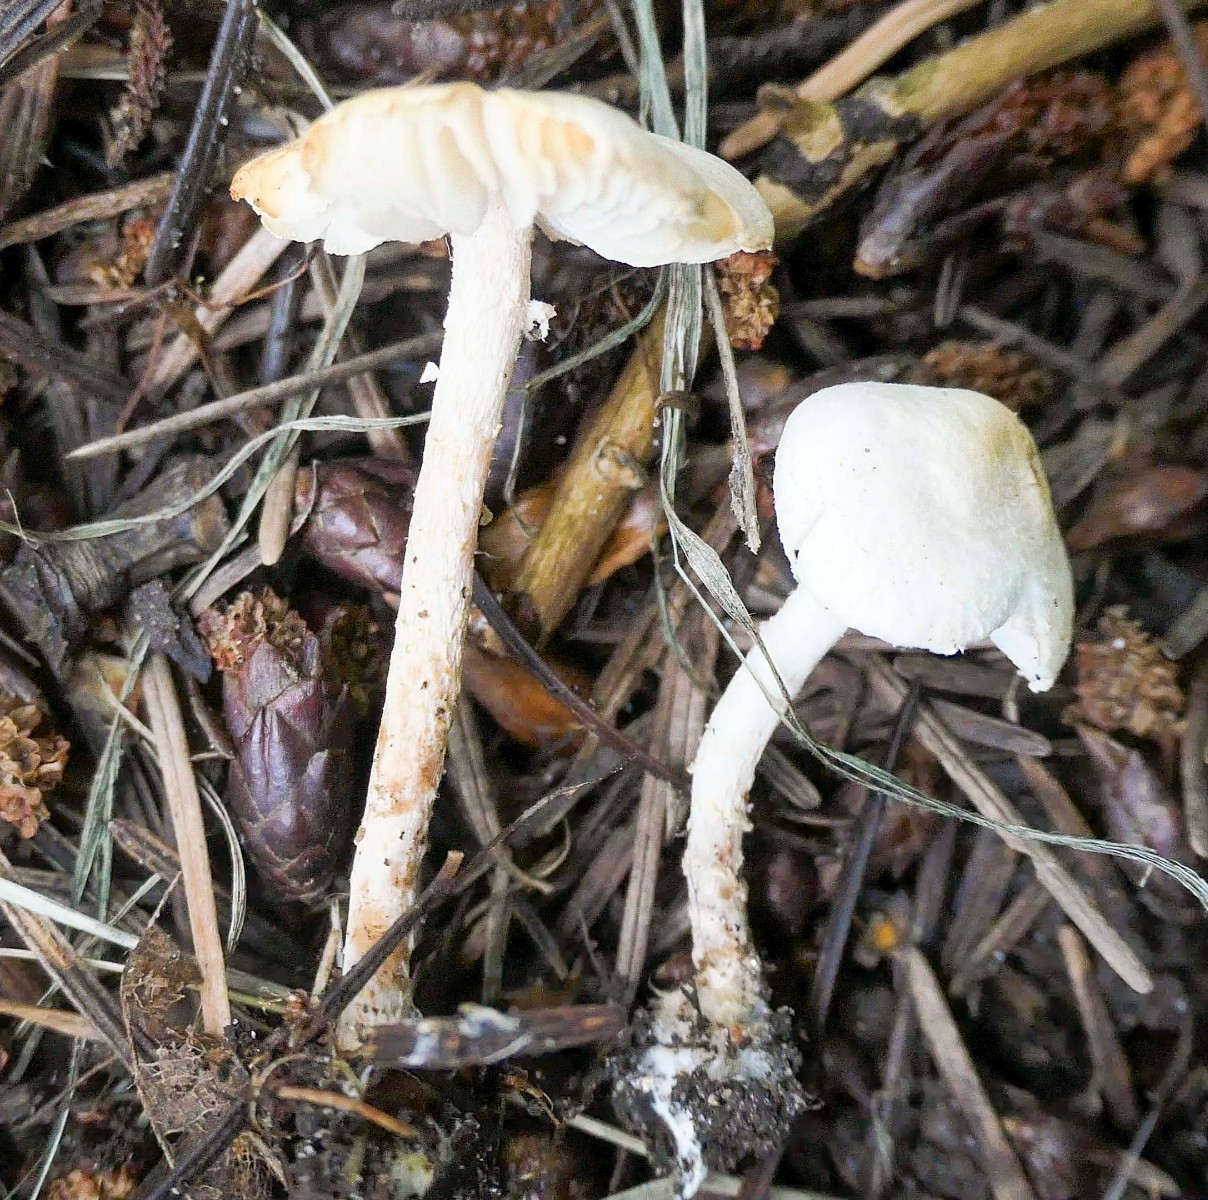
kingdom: Fungi
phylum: Basidiomycota
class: Agaricomycetes
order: Agaricales
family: Agaricaceae
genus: Cystolepiota
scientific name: Cystolepiota seminuda
